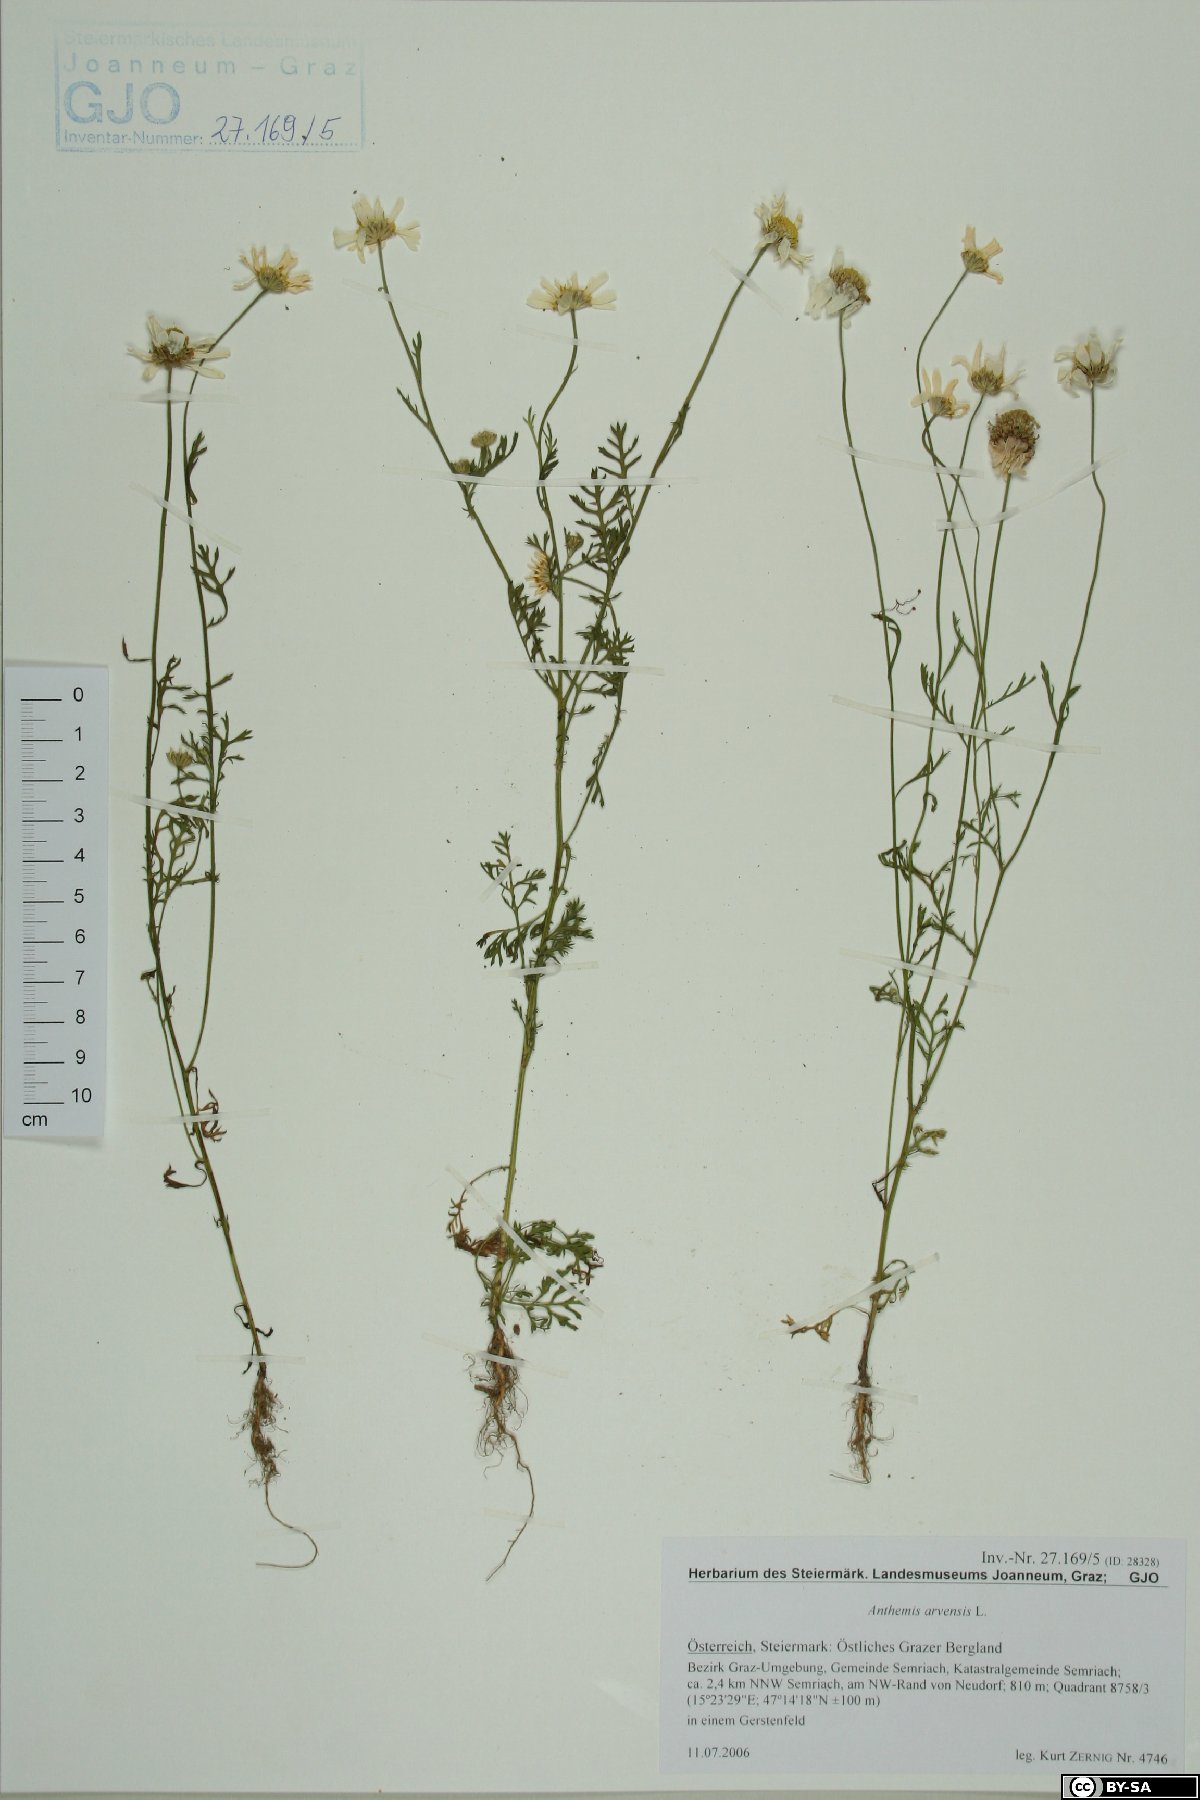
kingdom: Plantae
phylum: Tracheophyta
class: Magnoliopsida
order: Asterales
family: Asteraceae
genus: Anthemis
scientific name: Anthemis arvensis
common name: Corn chamomile
